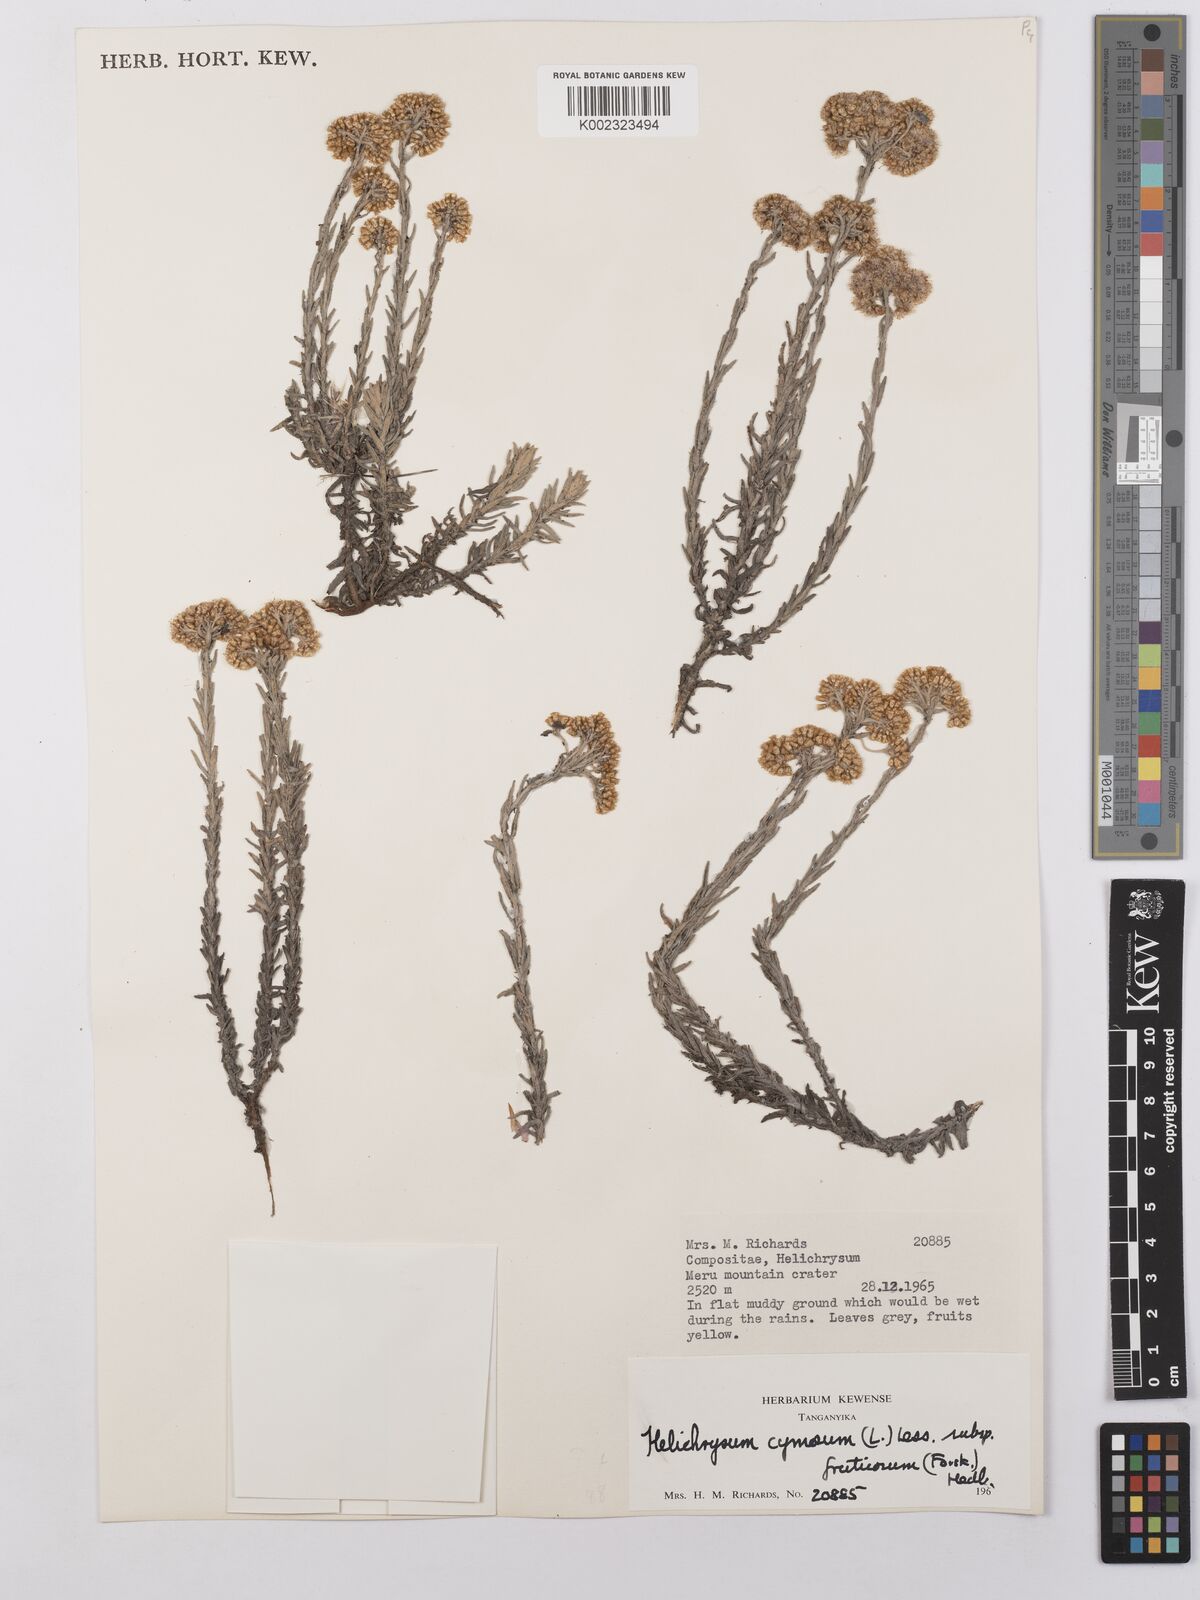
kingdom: Plantae
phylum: Tracheophyta
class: Magnoliopsida
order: Asterales
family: Asteraceae
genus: Helichrysum
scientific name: Helichrysum forskahlii
